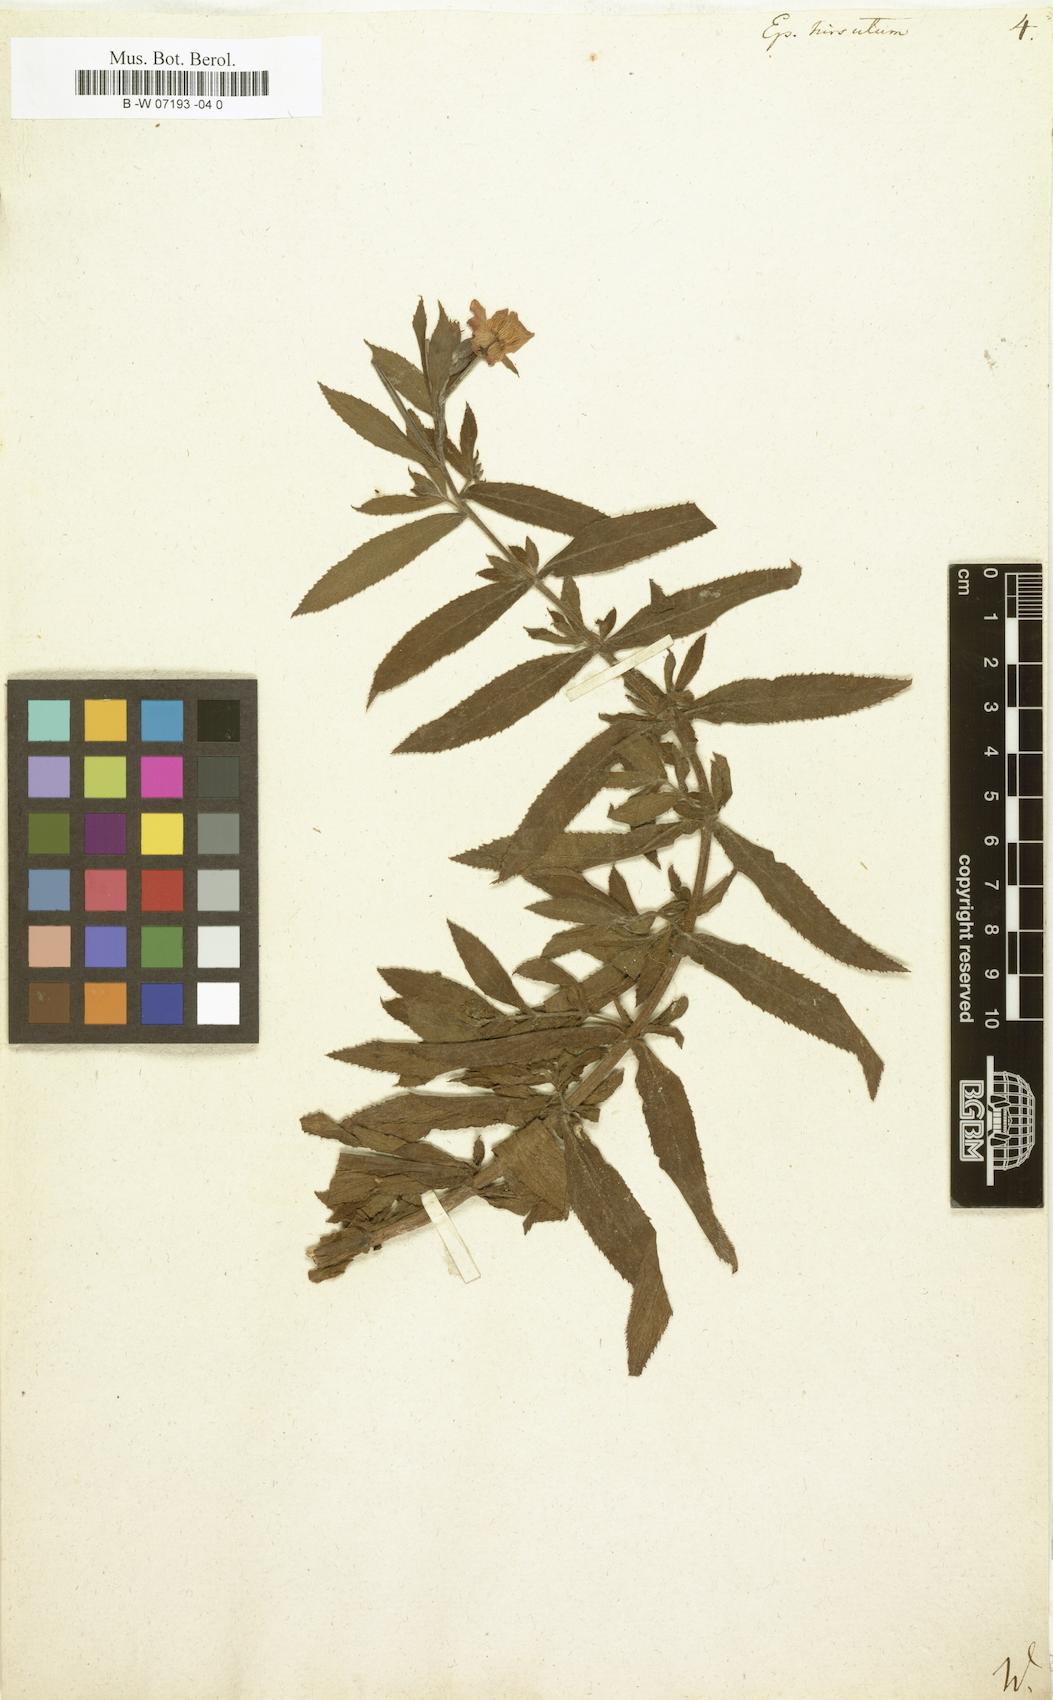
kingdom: Plantae
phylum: Tracheophyta
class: Magnoliopsida
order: Myrtales
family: Onagraceae
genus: Epilobium
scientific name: Epilobium hirsutum
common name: Great willowherb
